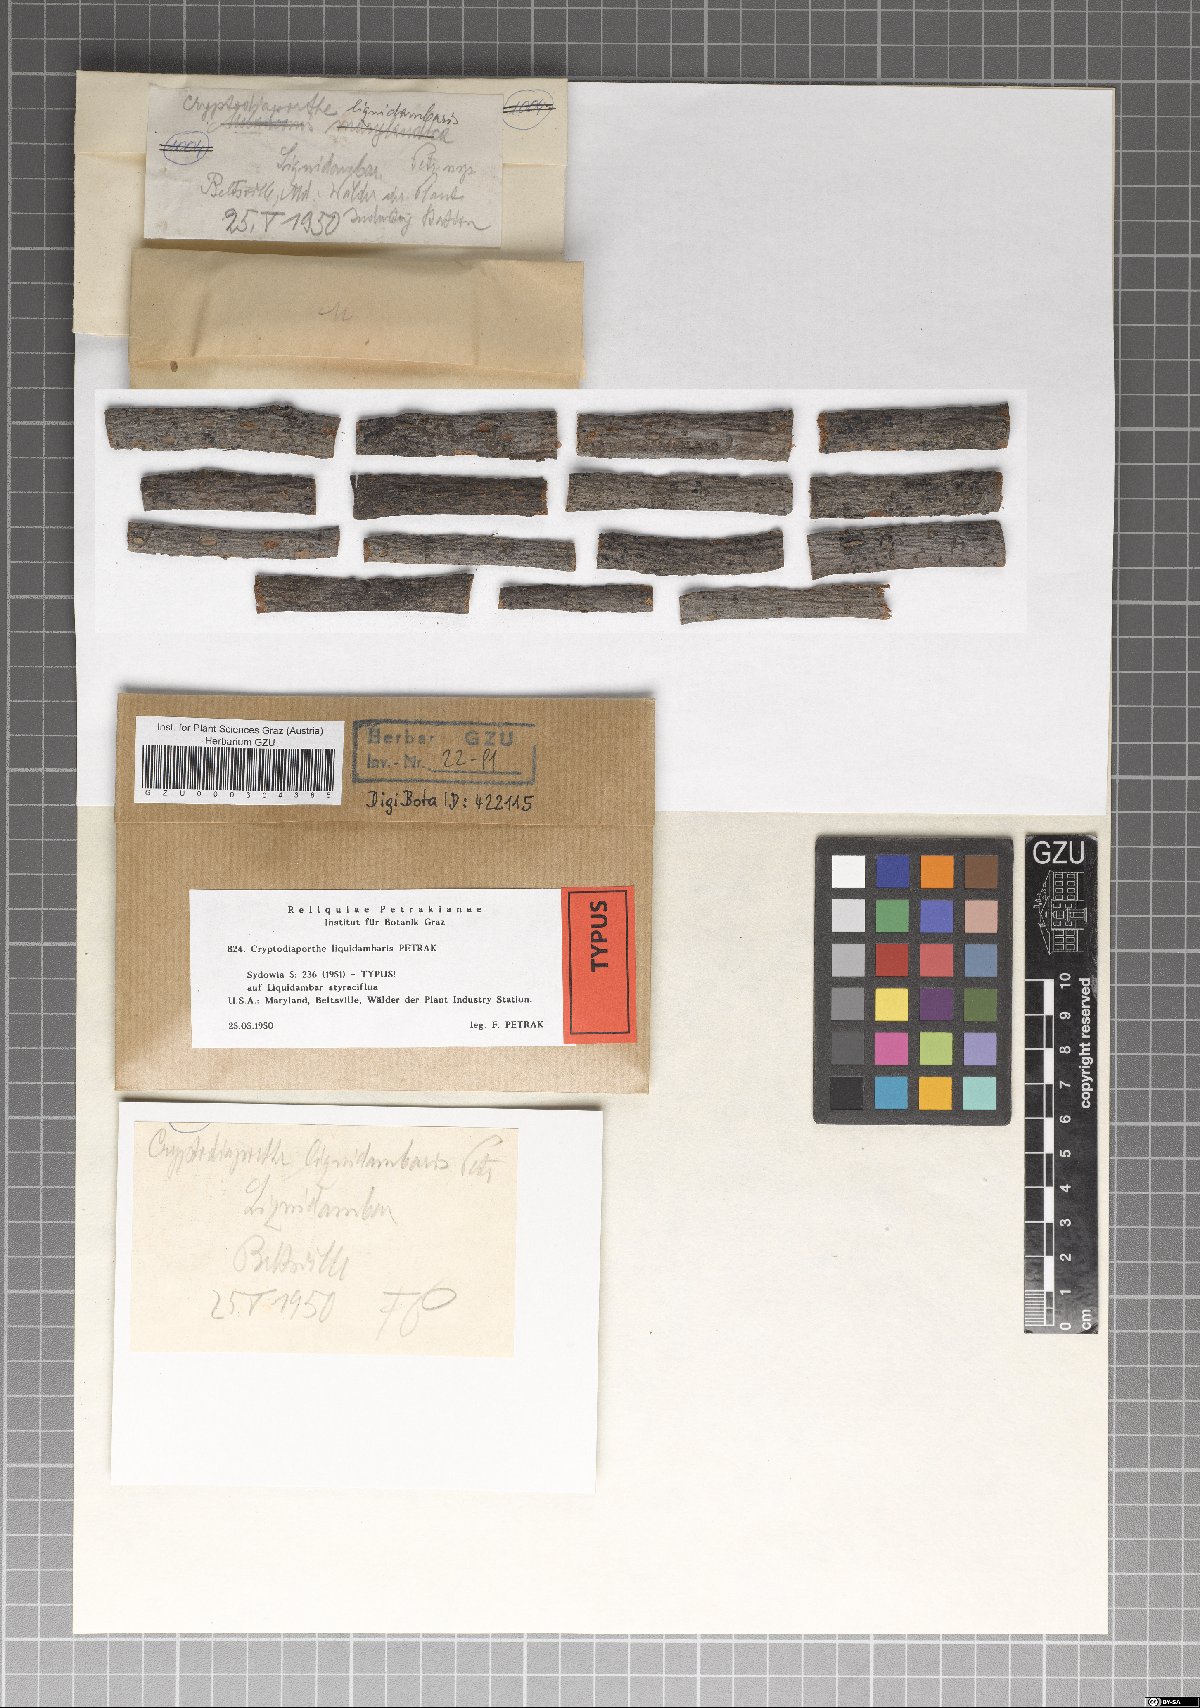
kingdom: Fungi
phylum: Ascomycota
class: Sordariomycetes
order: Diaporthales
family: Gnomoniaceae
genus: Cryptodiaporthe
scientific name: Cryptodiaporthe liquidambaris
